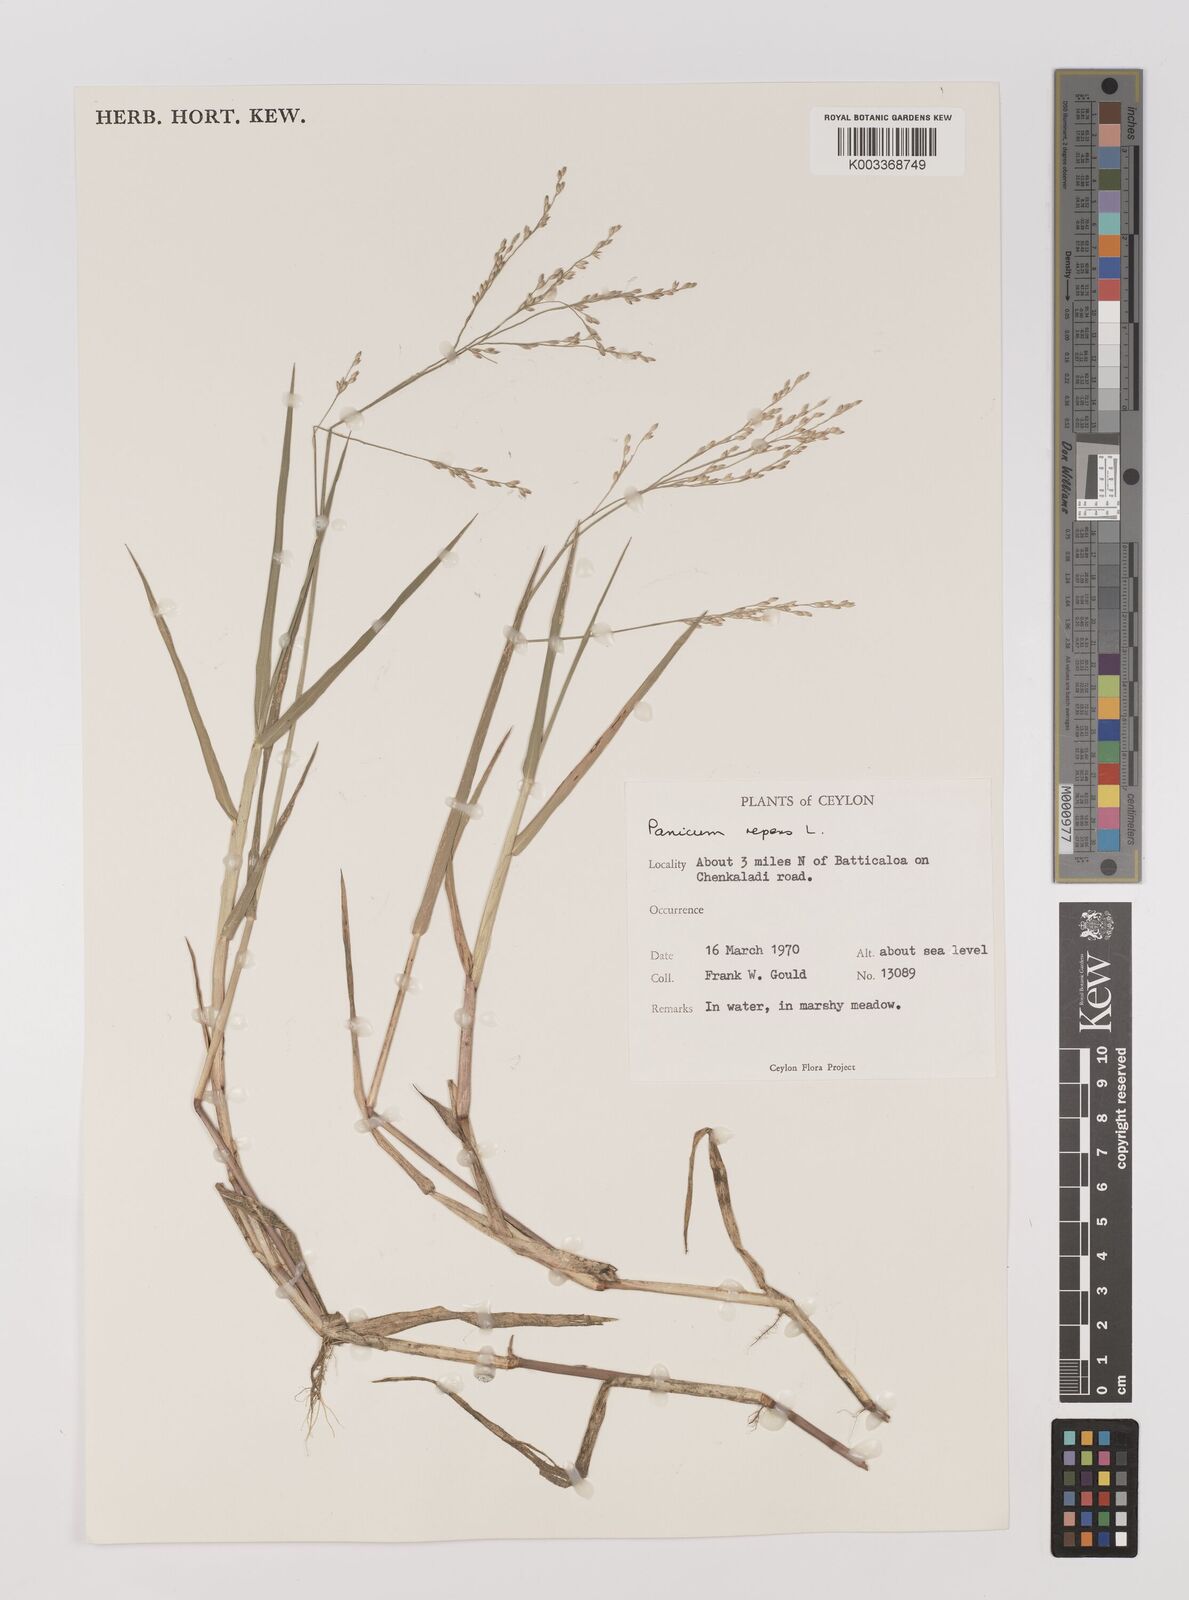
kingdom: Plantae
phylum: Tracheophyta
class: Liliopsida
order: Poales
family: Poaceae
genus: Panicum
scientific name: Panicum repens
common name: Torpedo grass
